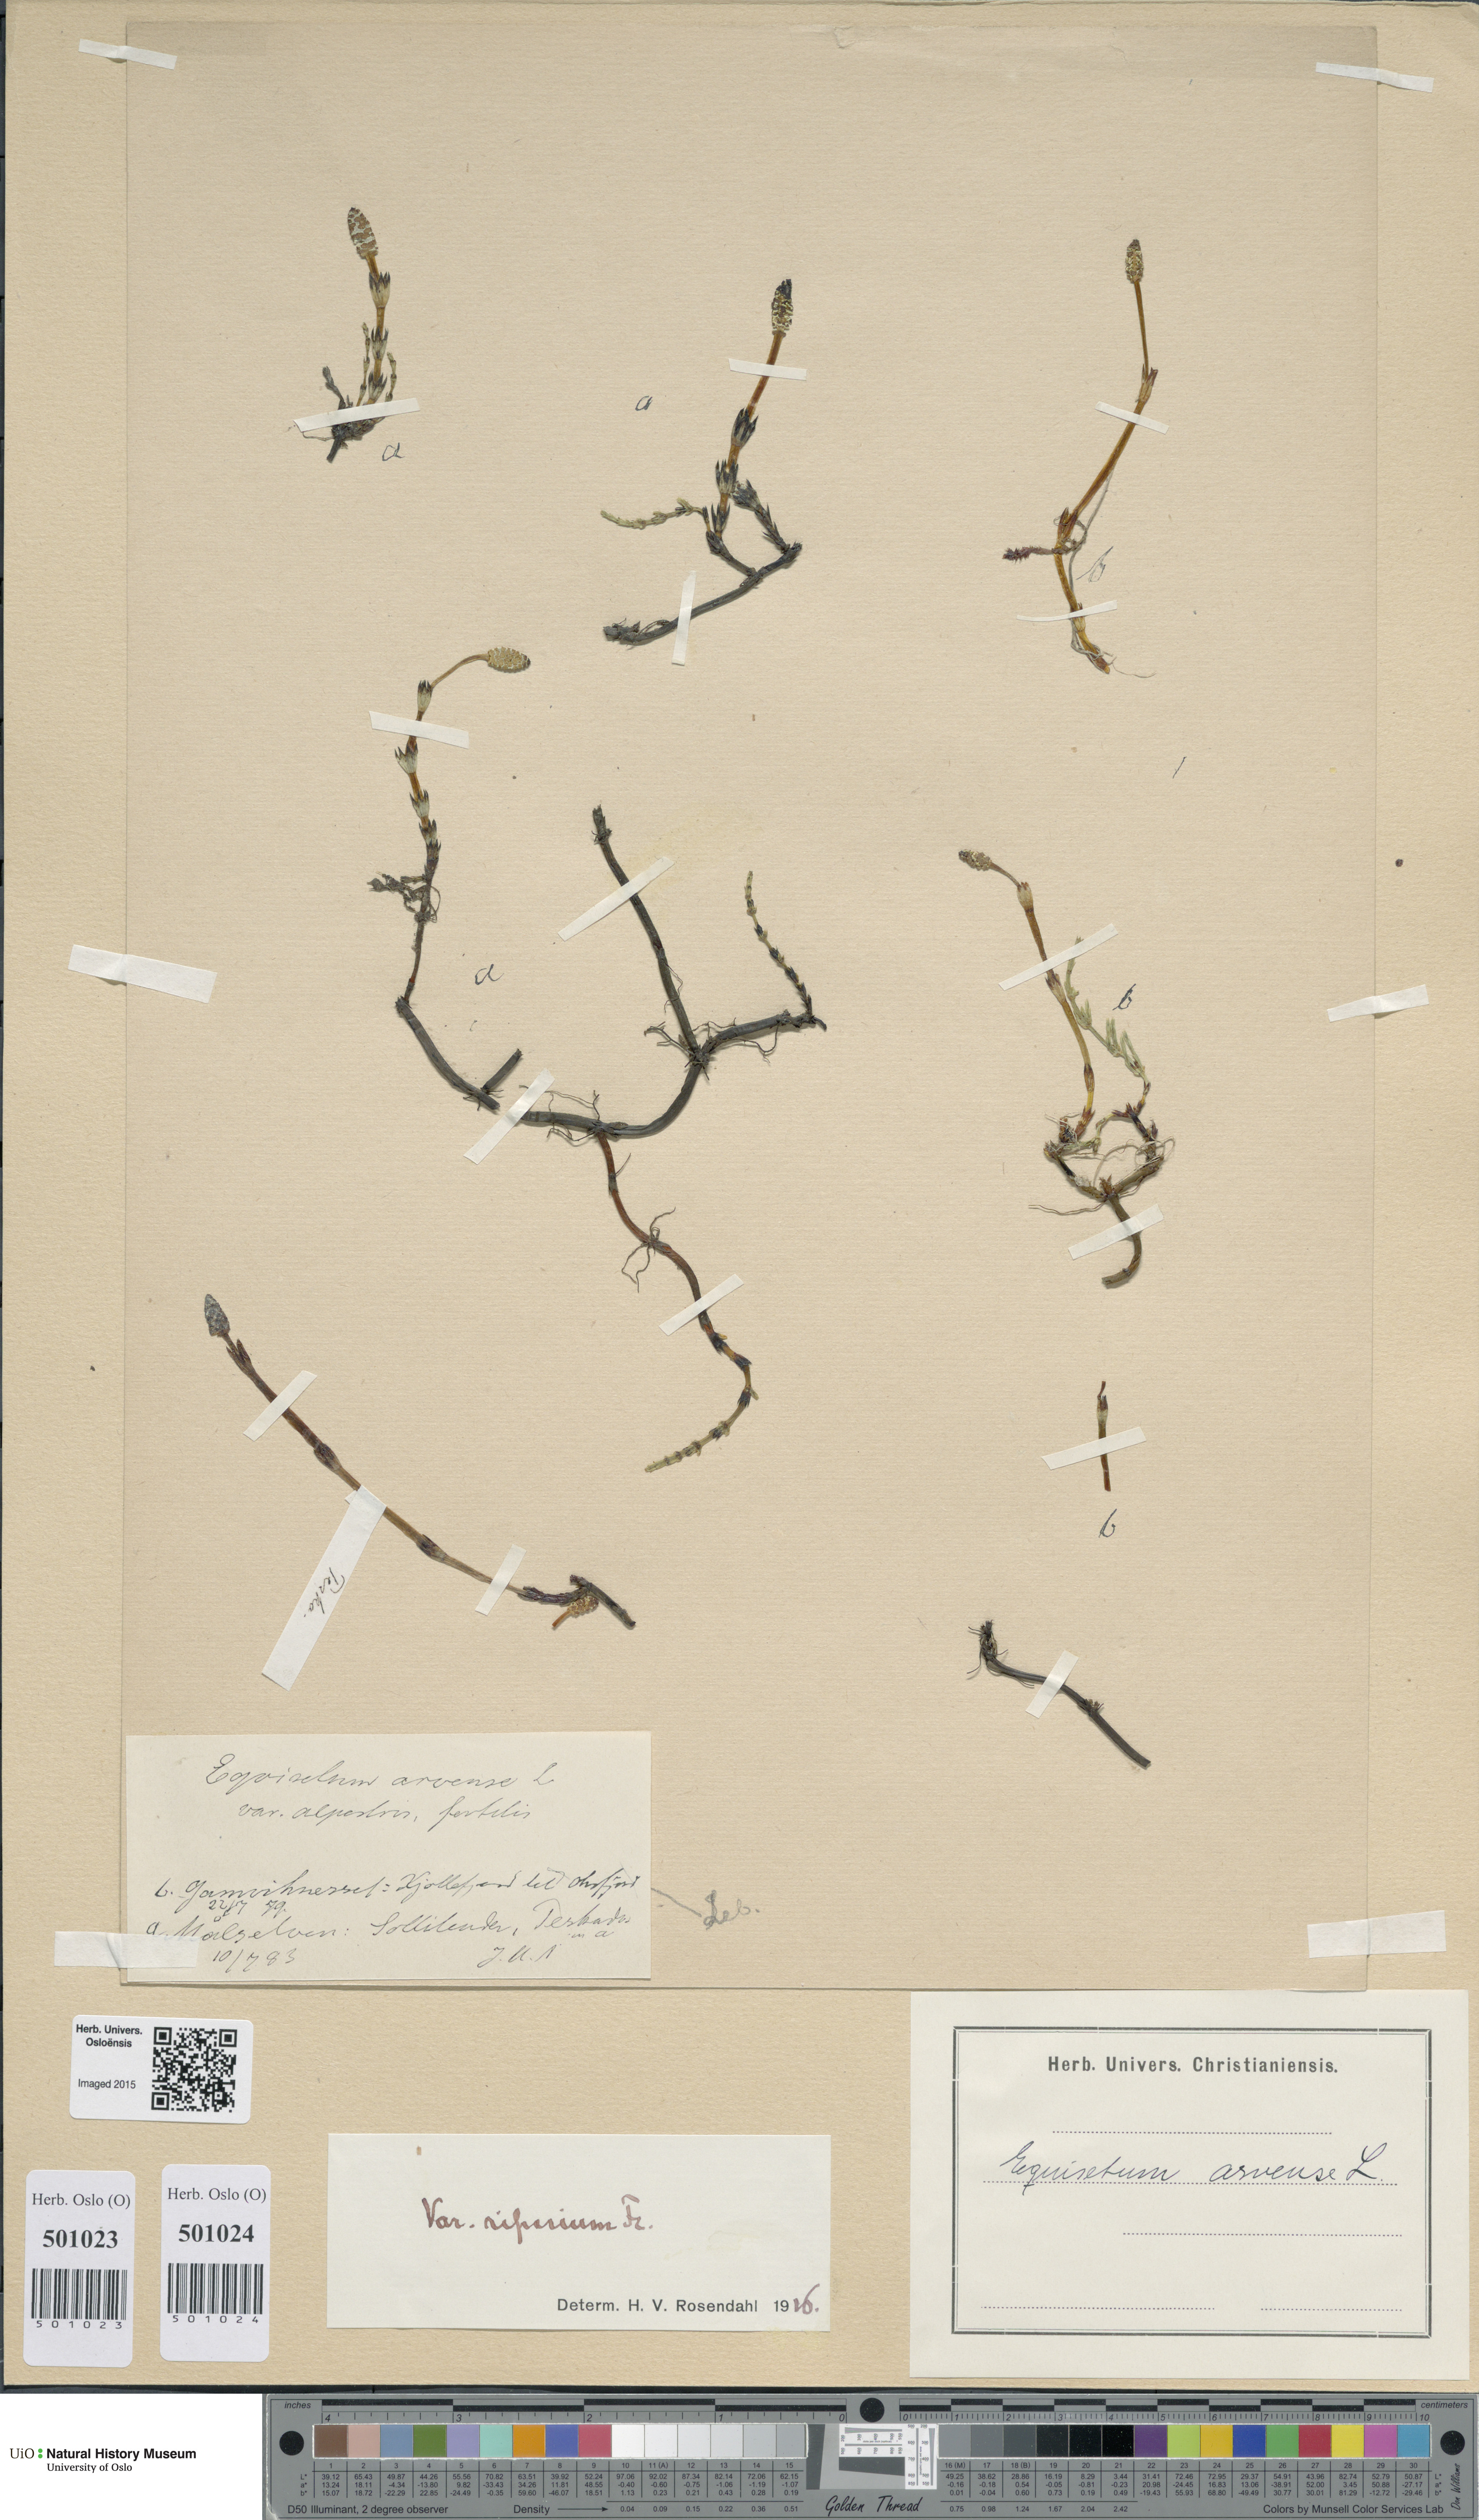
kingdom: Plantae
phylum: Tracheophyta
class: Polypodiopsida
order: Equisetales
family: Equisetaceae
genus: Equisetum
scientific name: Equisetum arvense
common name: Field horsetail
